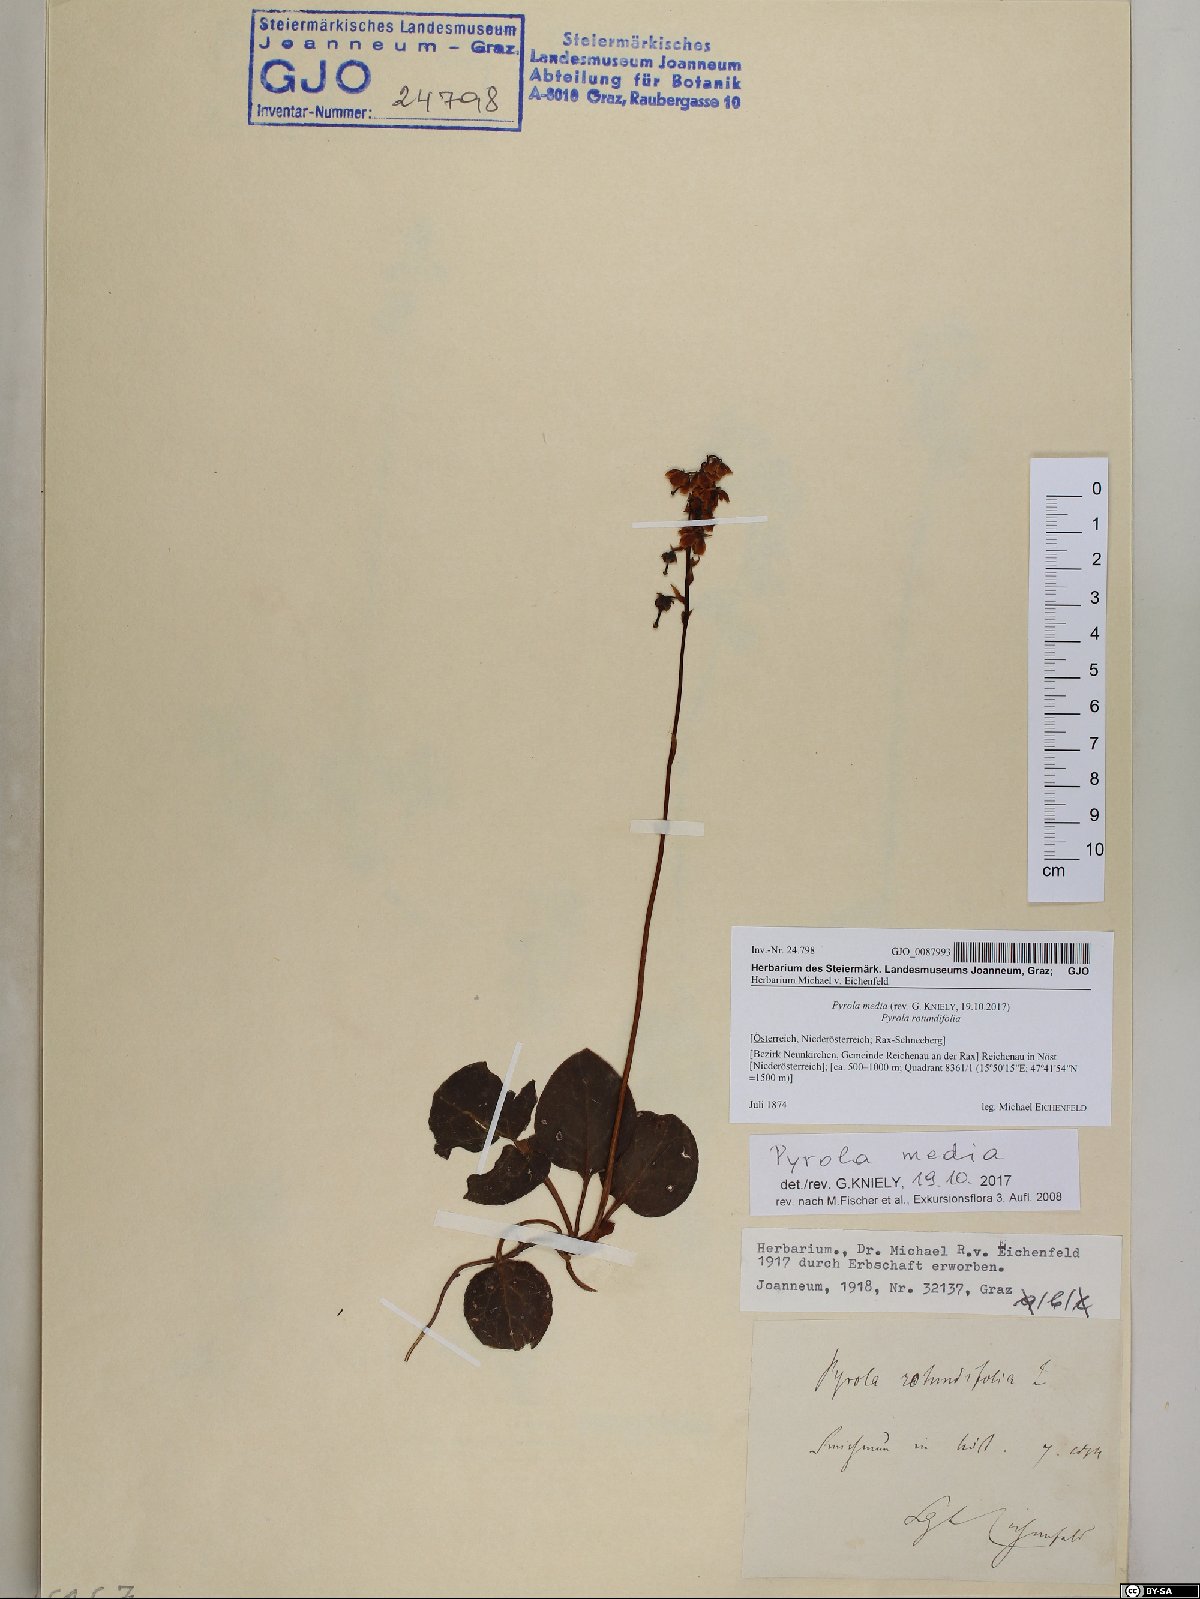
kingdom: Plantae
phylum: Tracheophyta
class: Magnoliopsida
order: Ericales
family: Ericaceae
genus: Pyrola
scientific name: Pyrola media
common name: Intermediate wintergreen
